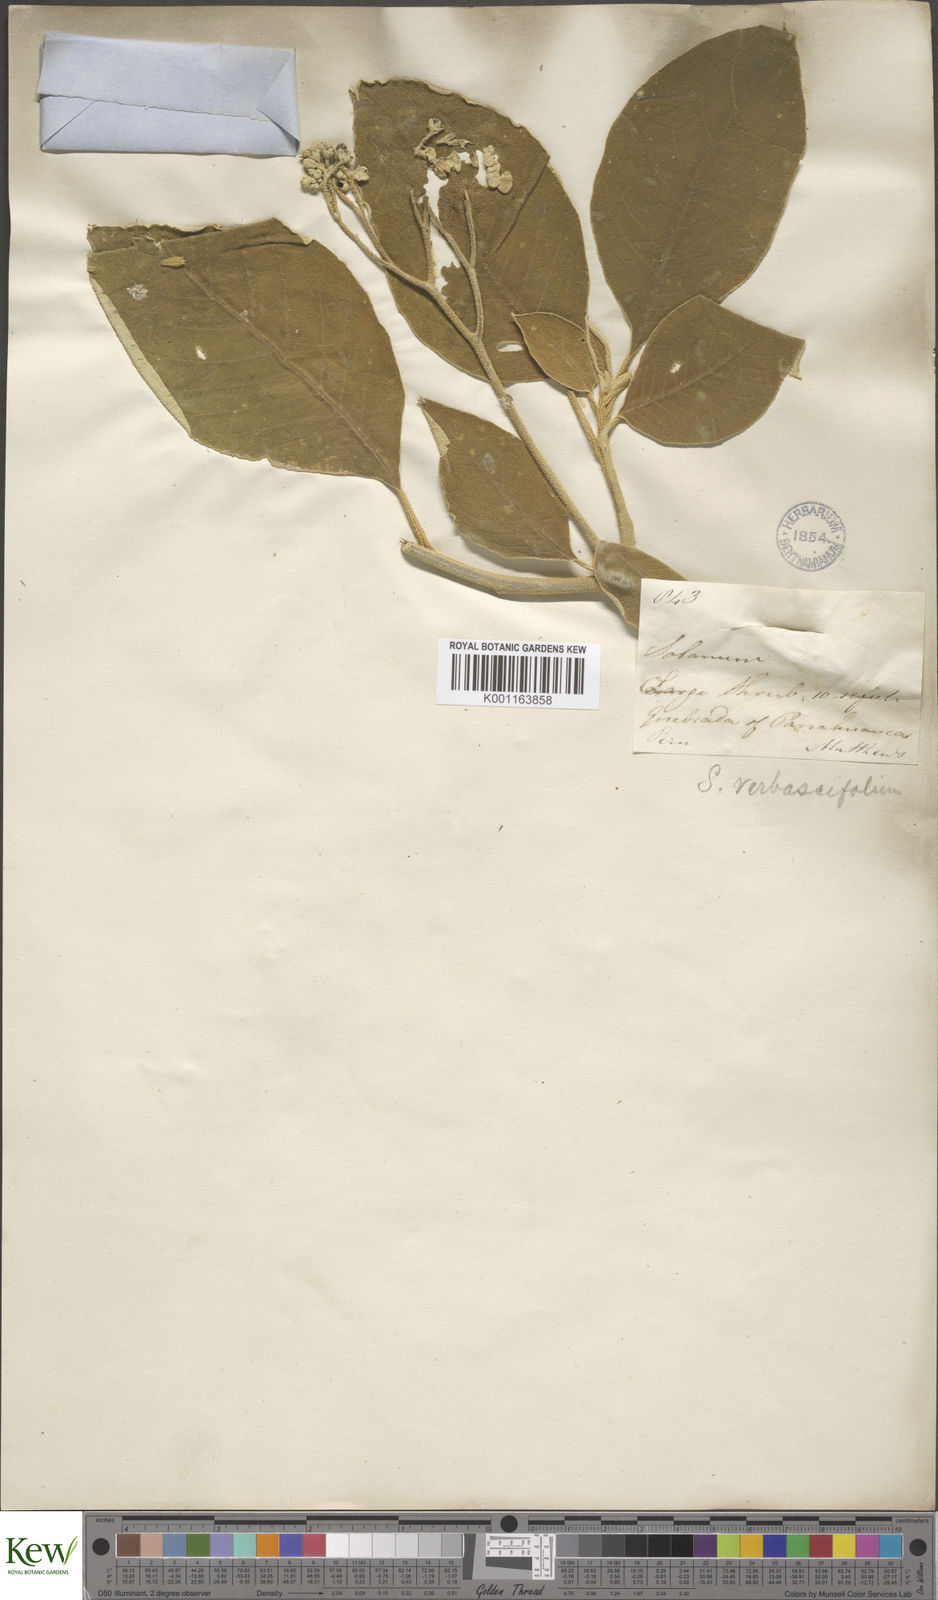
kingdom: Plantae
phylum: Tracheophyta
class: Magnoliopsida
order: Solanales
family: Solanaceae
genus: Solanum
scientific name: Solanum erianthum
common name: Tobacco-tree
